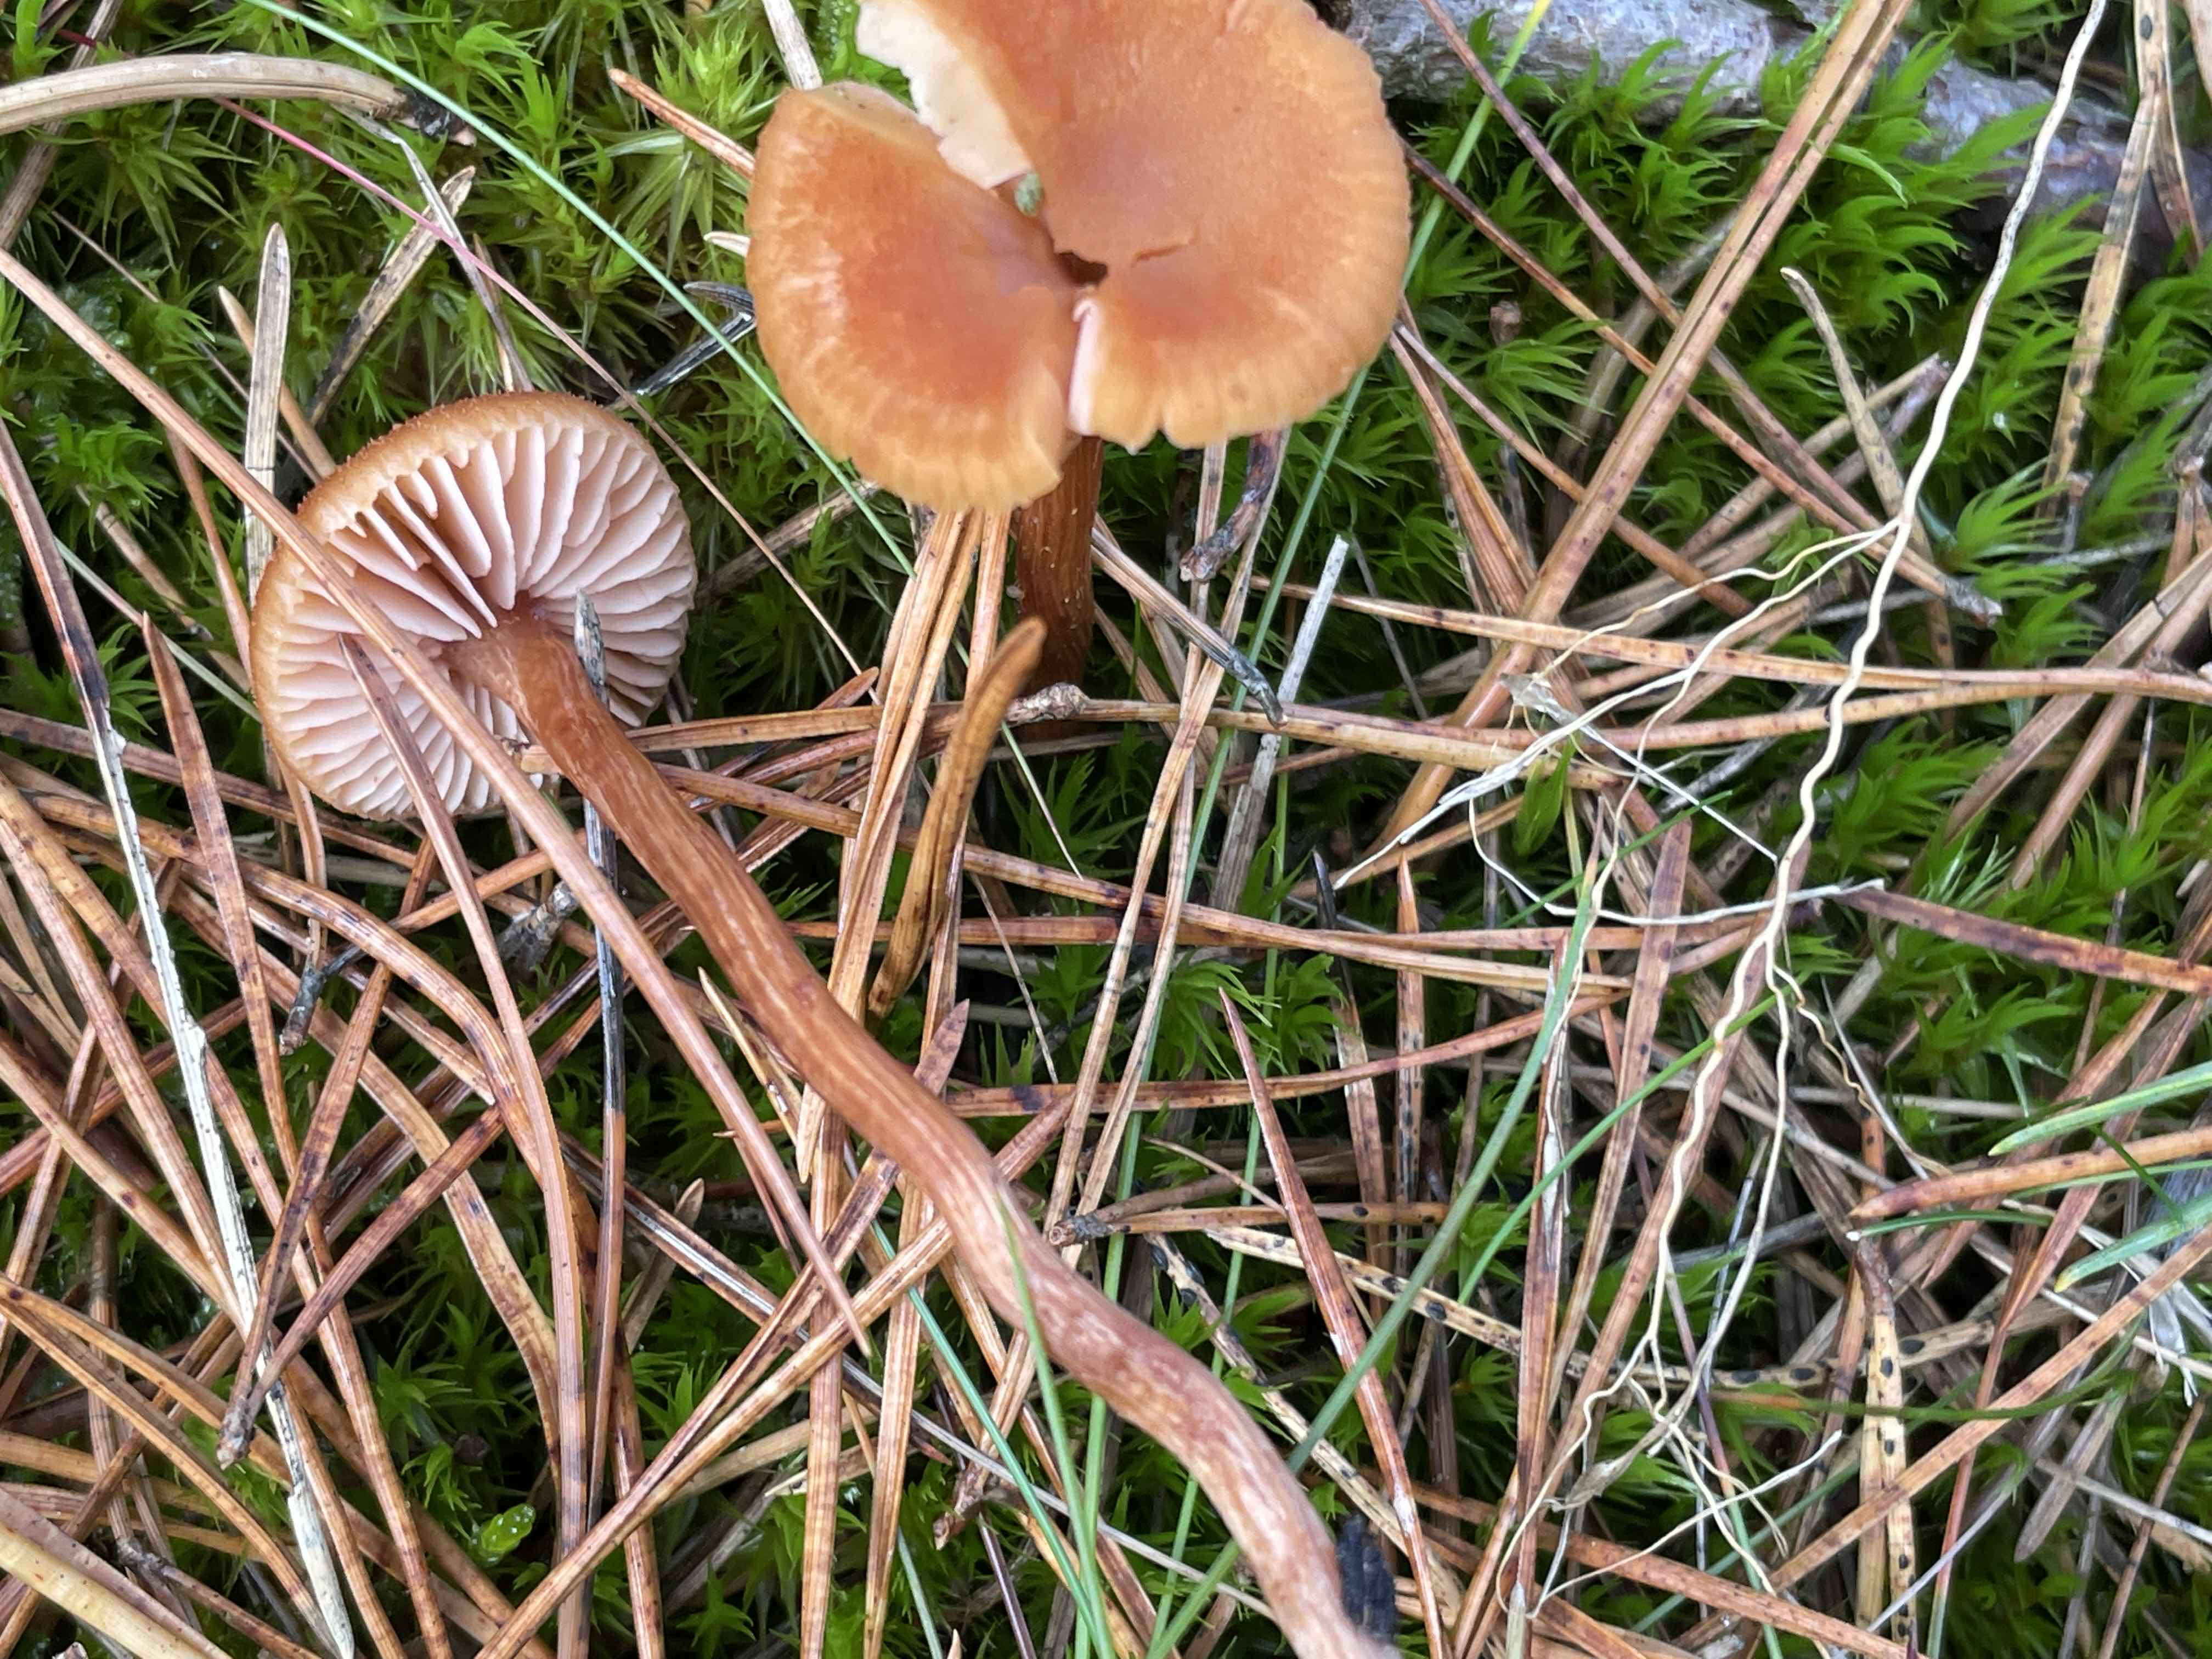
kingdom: Fungi
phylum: Basidiomycota
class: Agaricomycetes
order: Agaricales
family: Hydnangiaceae
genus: Laccaria
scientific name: Laccaria
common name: ametysthat
